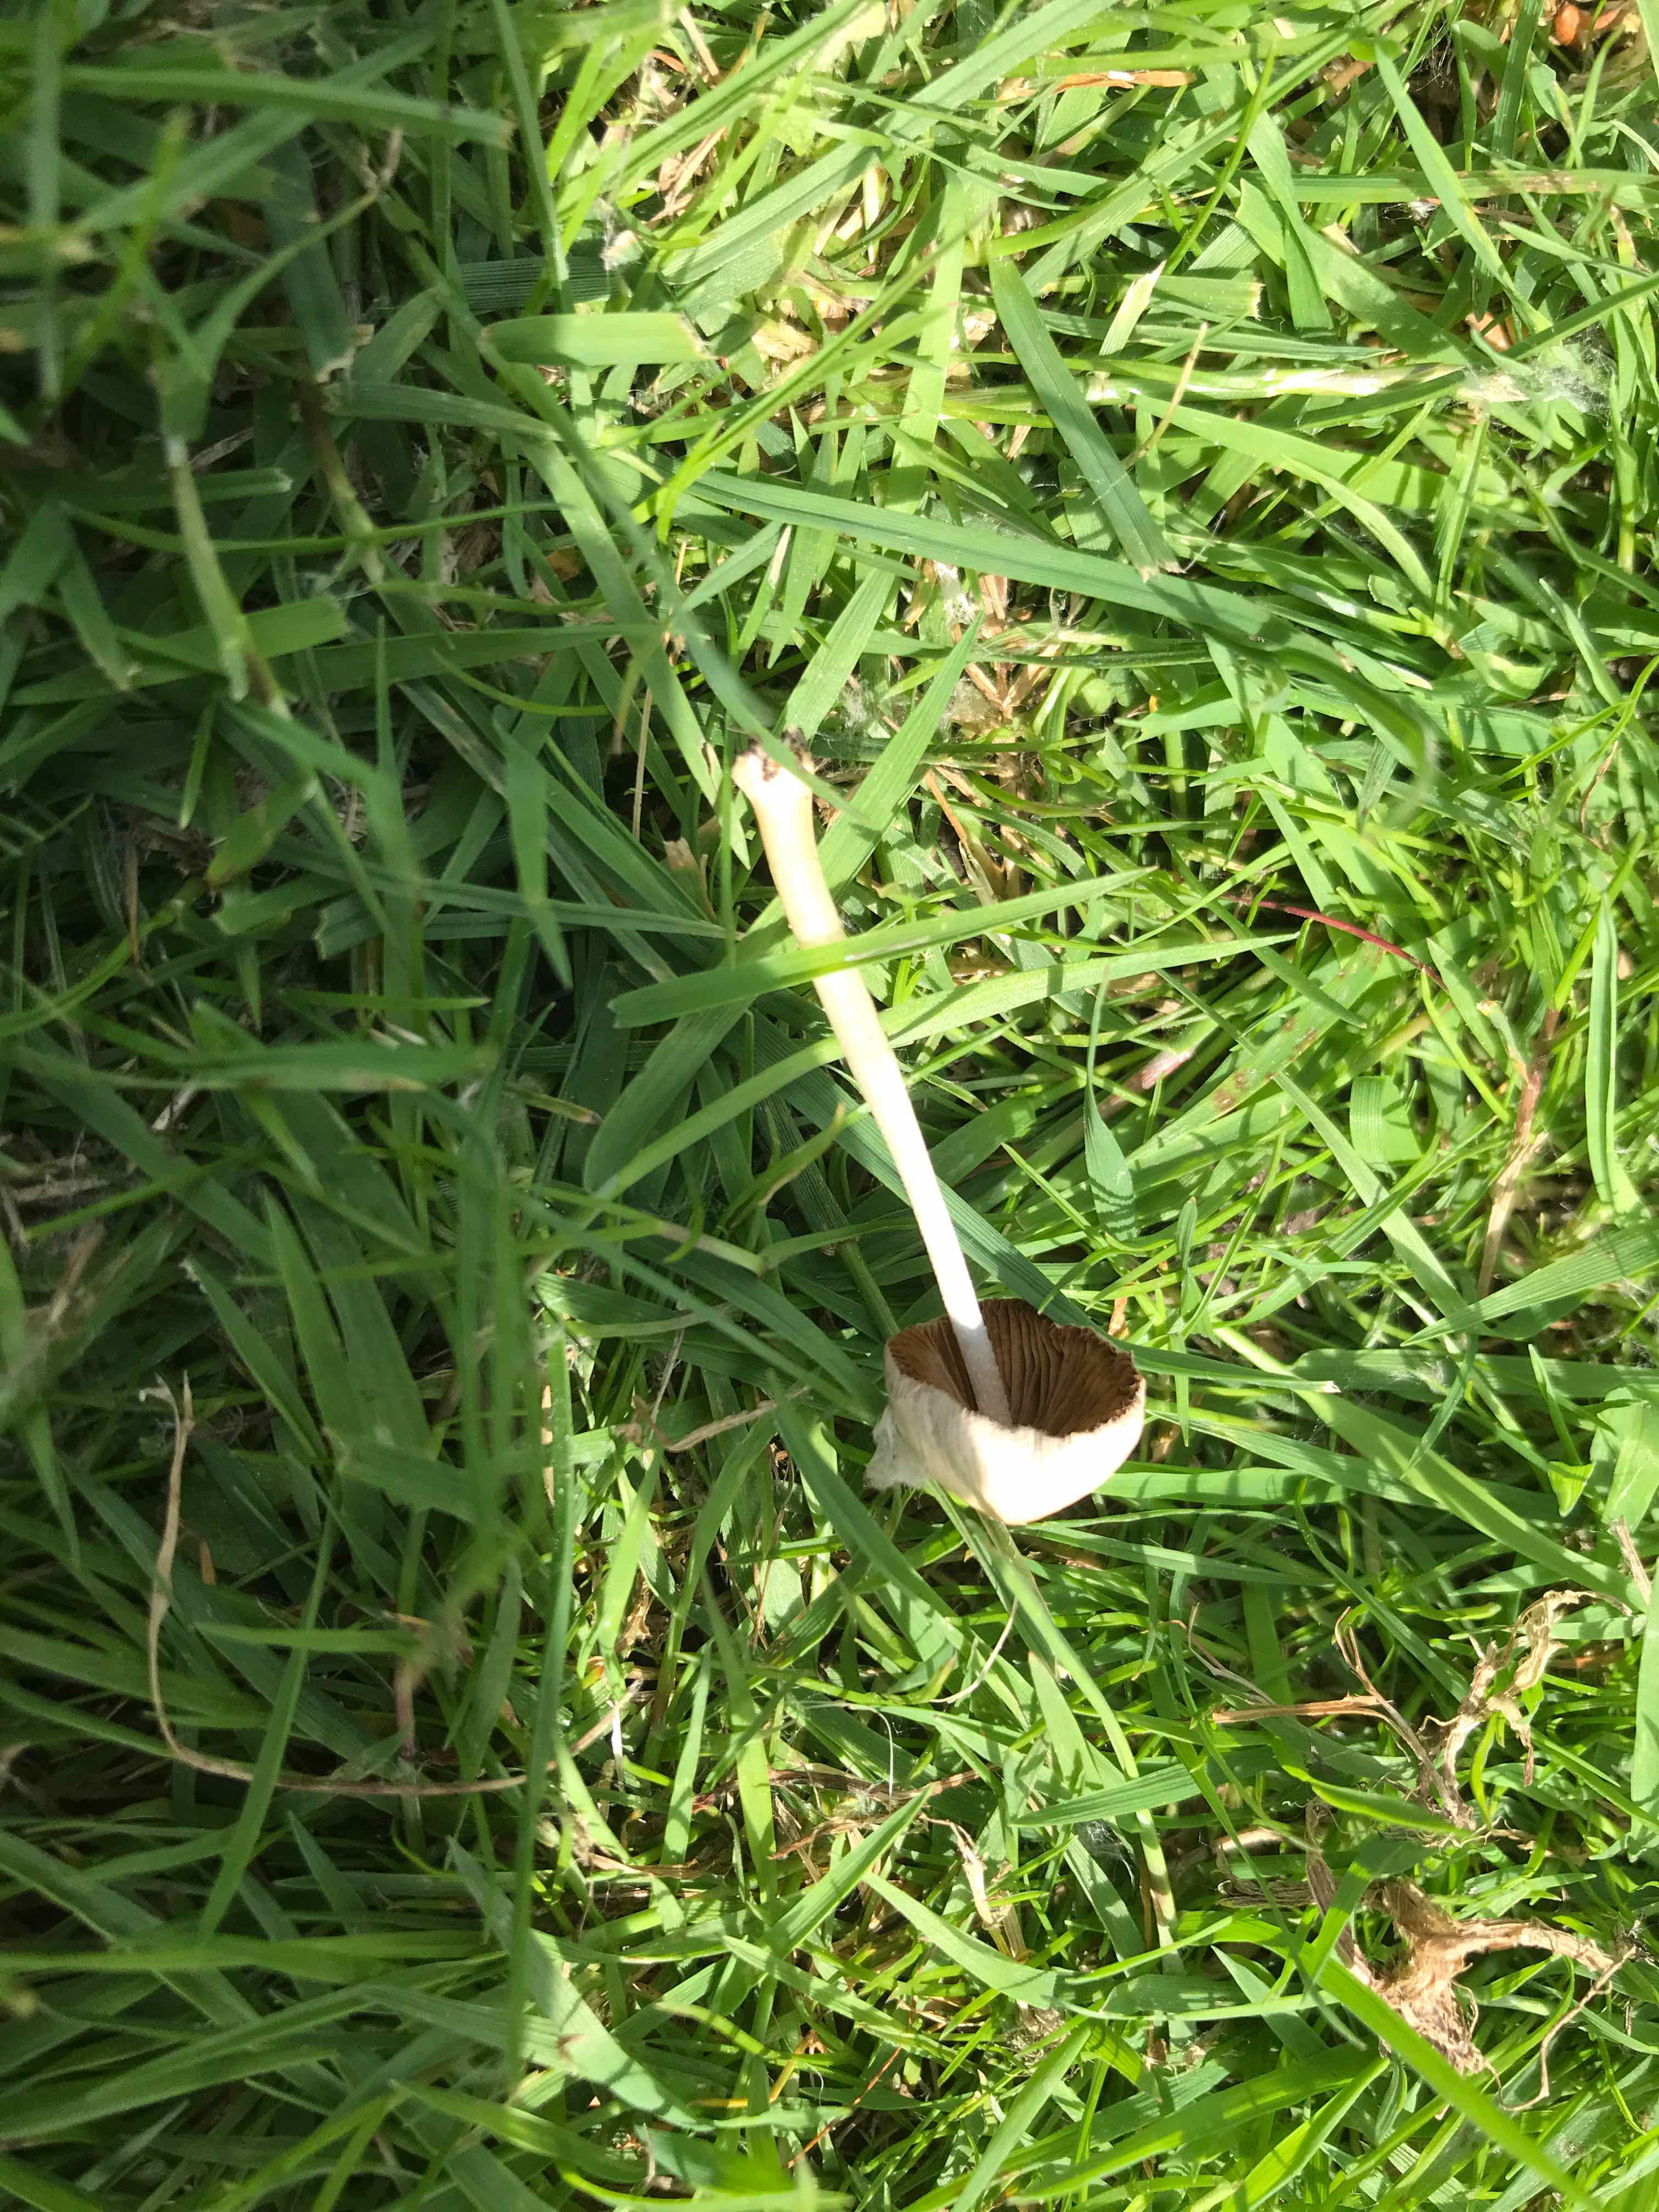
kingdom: Fungi
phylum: Basidiomycota
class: Agaricomycetes
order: Agaricales
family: Bolbitiaceae
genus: Conocybe
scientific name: Conocybe apala
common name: mælkehvid keglehat
